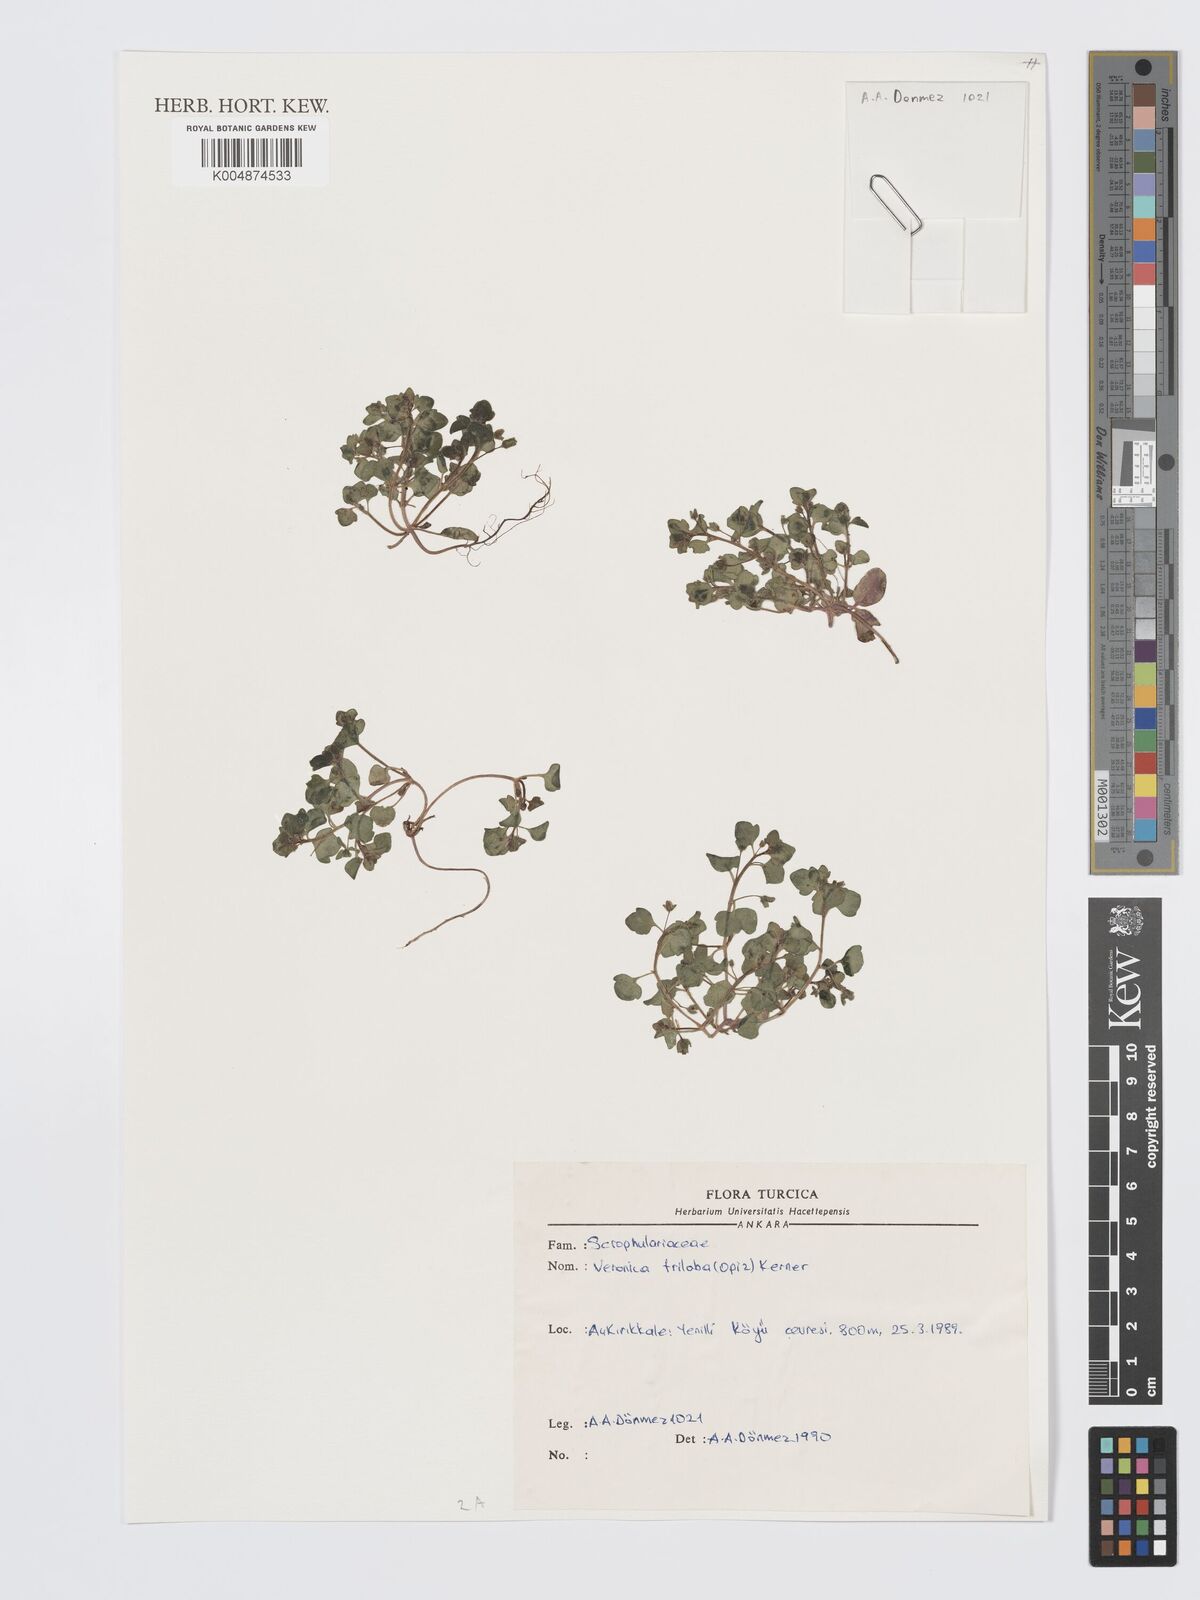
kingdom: Plantae
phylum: Tracheophyta
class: Magnoliopsida
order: Lamiales
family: Plantaginaceae
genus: Veronica
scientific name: Veronica triloba
